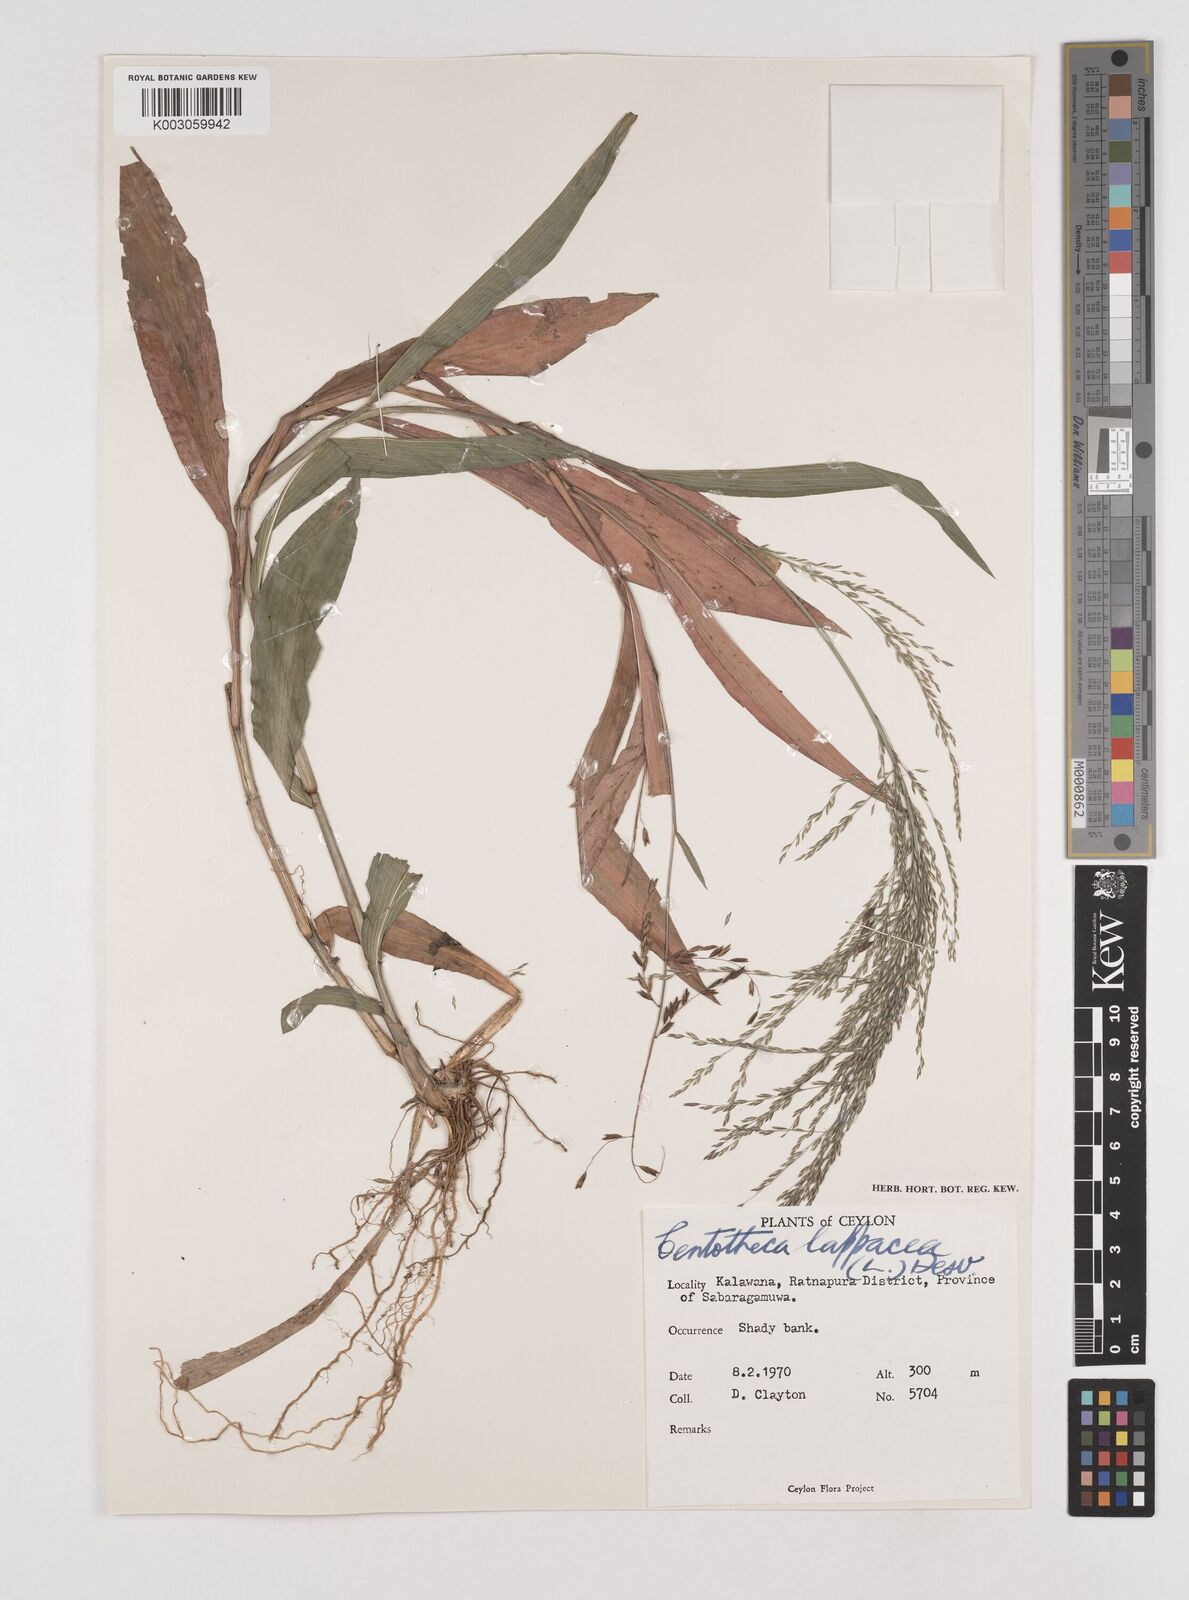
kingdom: Plantae
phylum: Tracheophyta
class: Liliopsida
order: Poales
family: Poaceae
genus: Centotheca
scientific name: Centotheca lappacea
